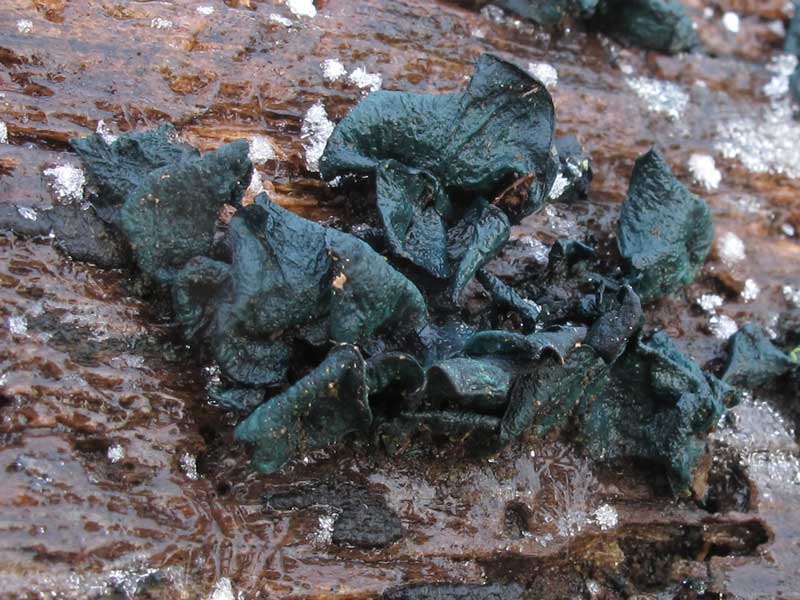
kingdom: Fungi
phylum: Ascomycota
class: Leotiomycetes
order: Helotiales
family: Chlorociboriaceae
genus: Chlorociboria
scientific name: Chlorociboria aeruginascens
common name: almindelig grønskive
